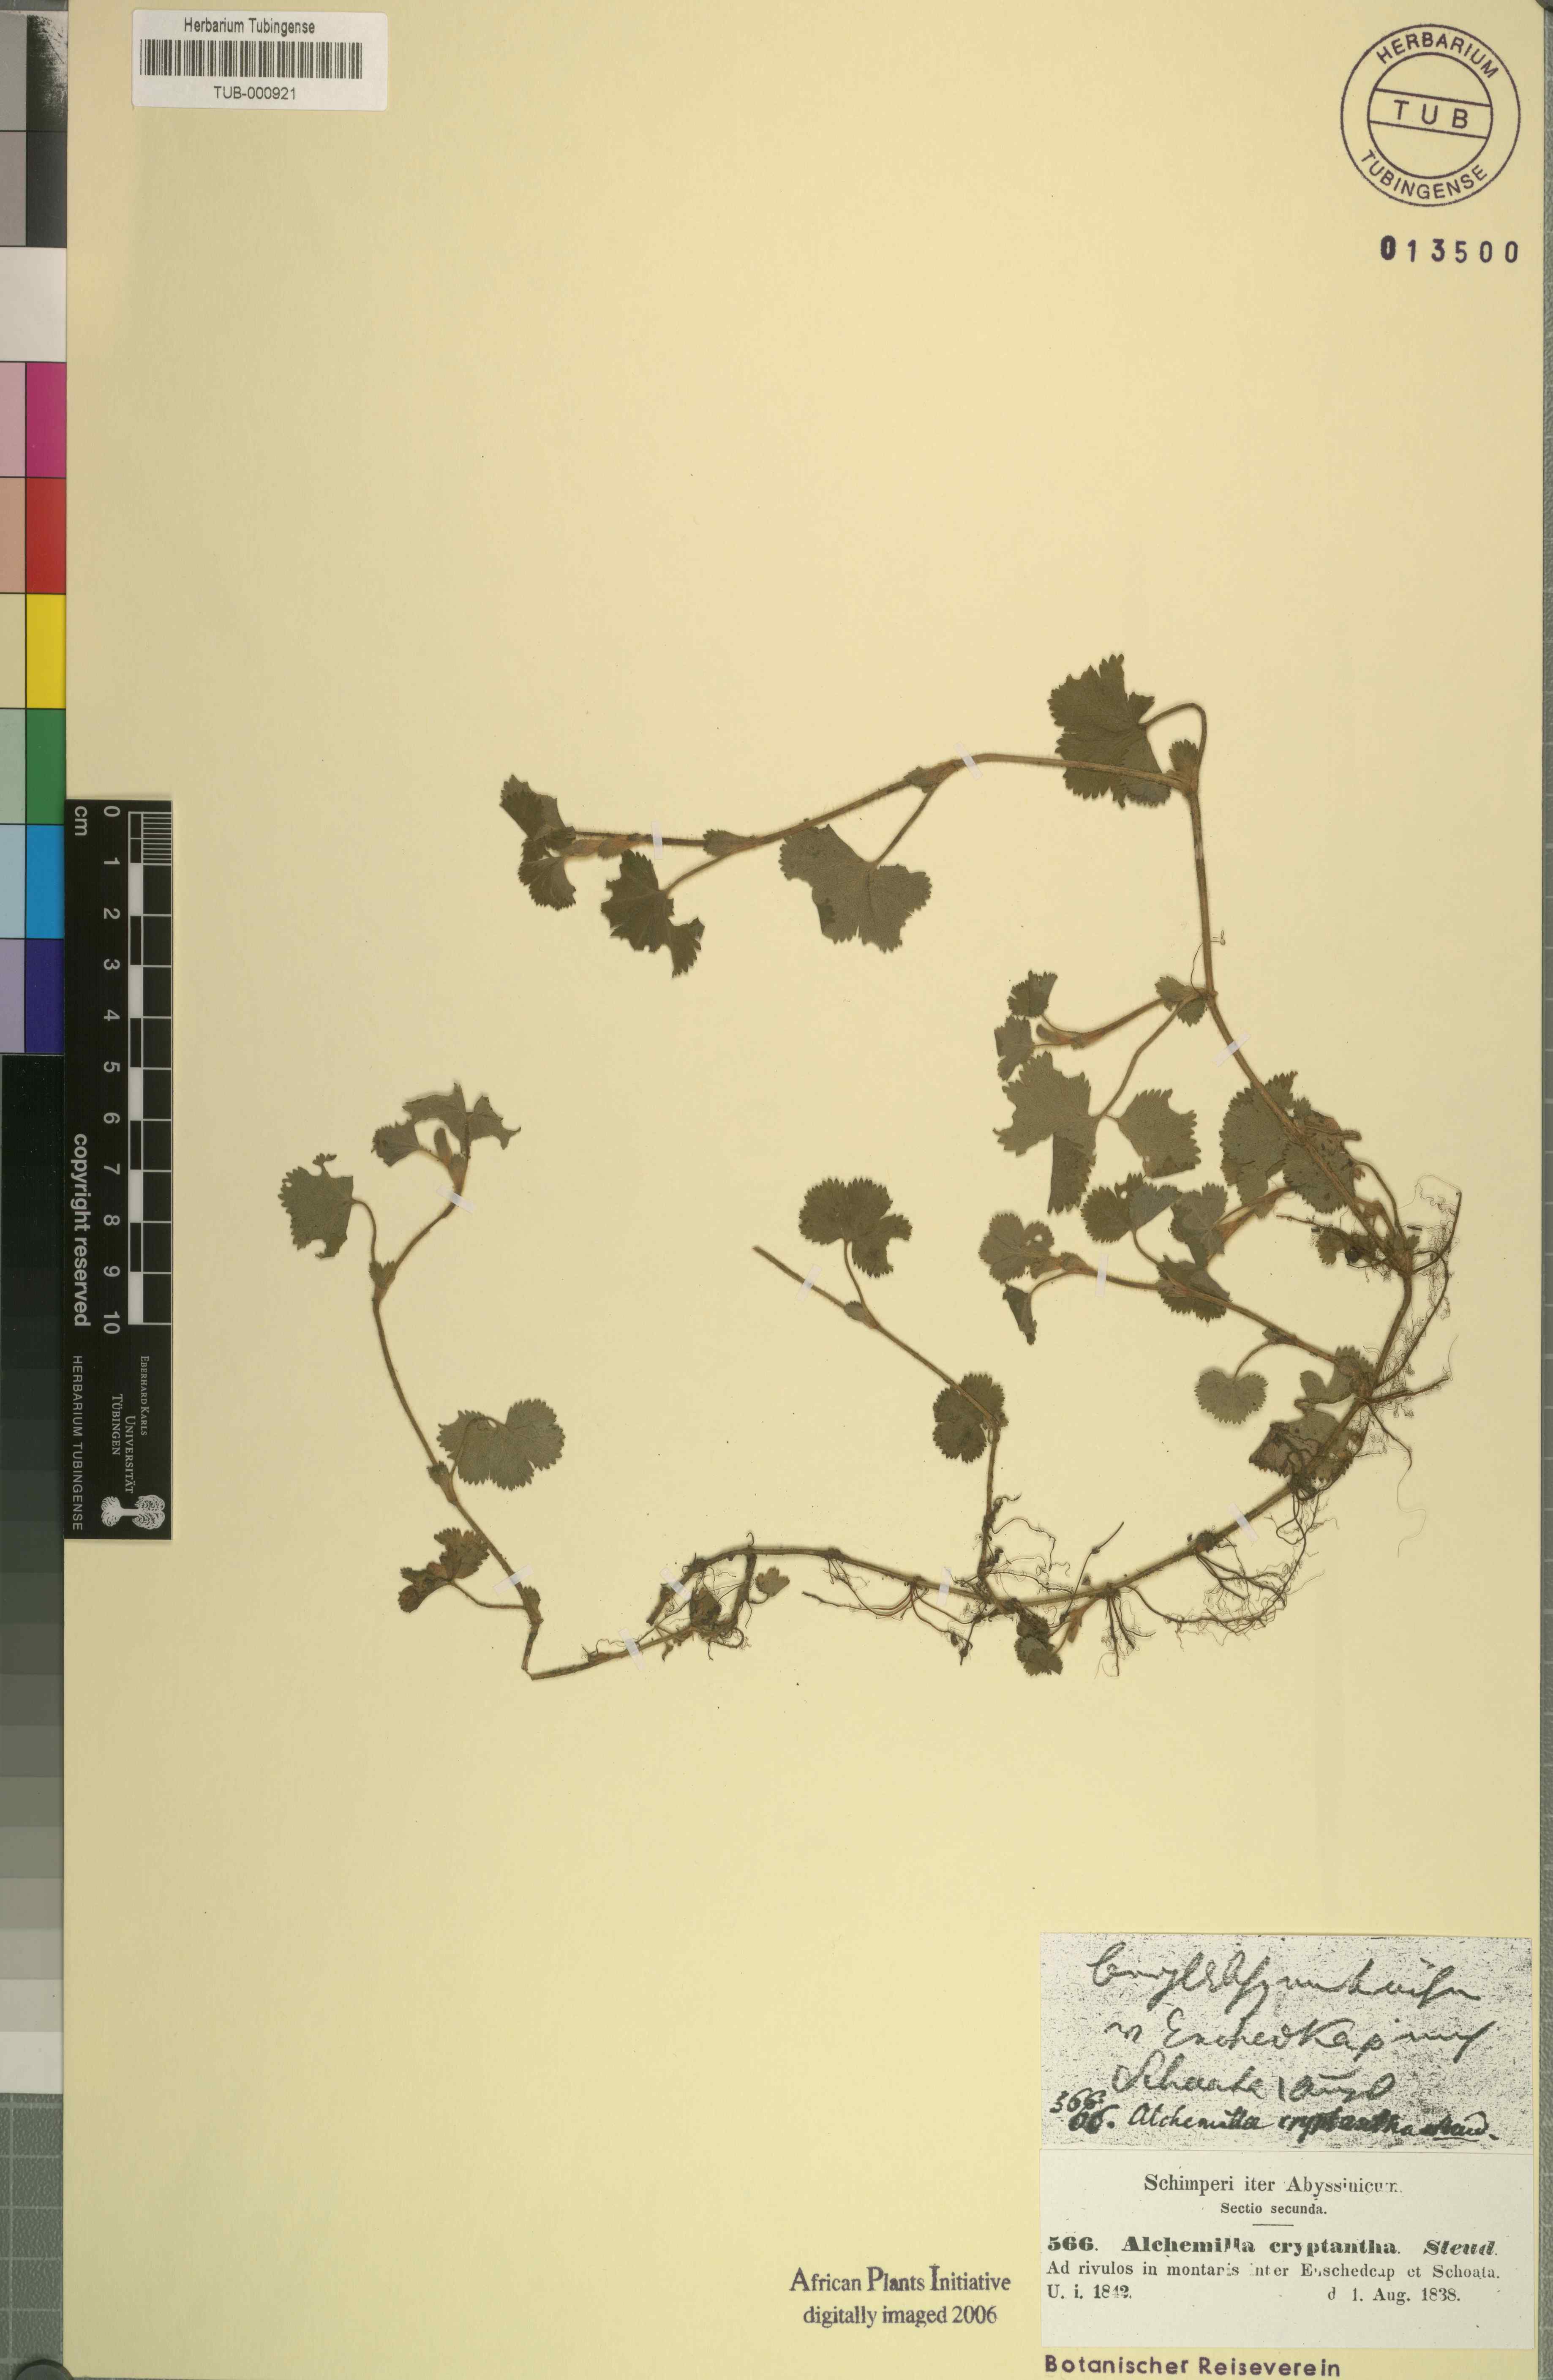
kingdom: Plantae
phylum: Tracheophyta
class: Magnoliopsida
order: Rosales
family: Rosaceae
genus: Alchemilla
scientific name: Alchemilla cryptantha
